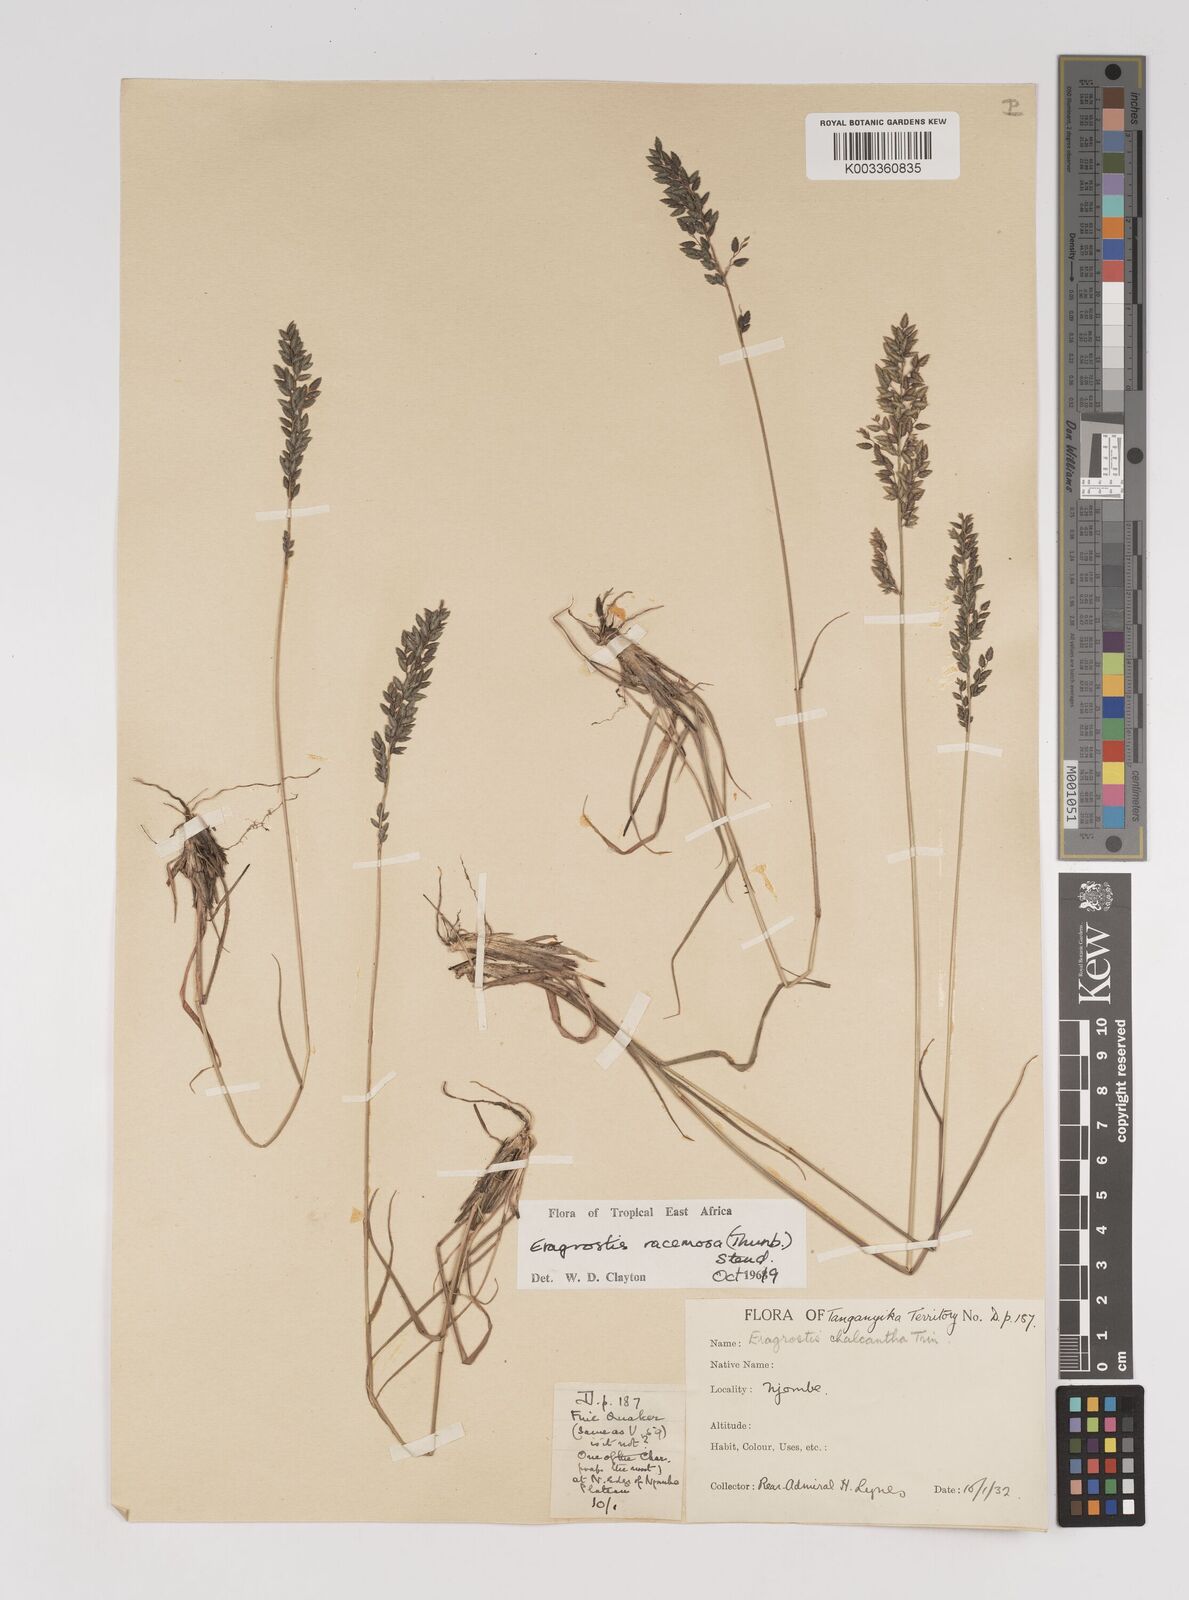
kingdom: Plantae
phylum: Tracheophyta
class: Liliopsida
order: Poales
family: Poaceae
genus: Eragrostis
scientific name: Eragrostis racemosa
